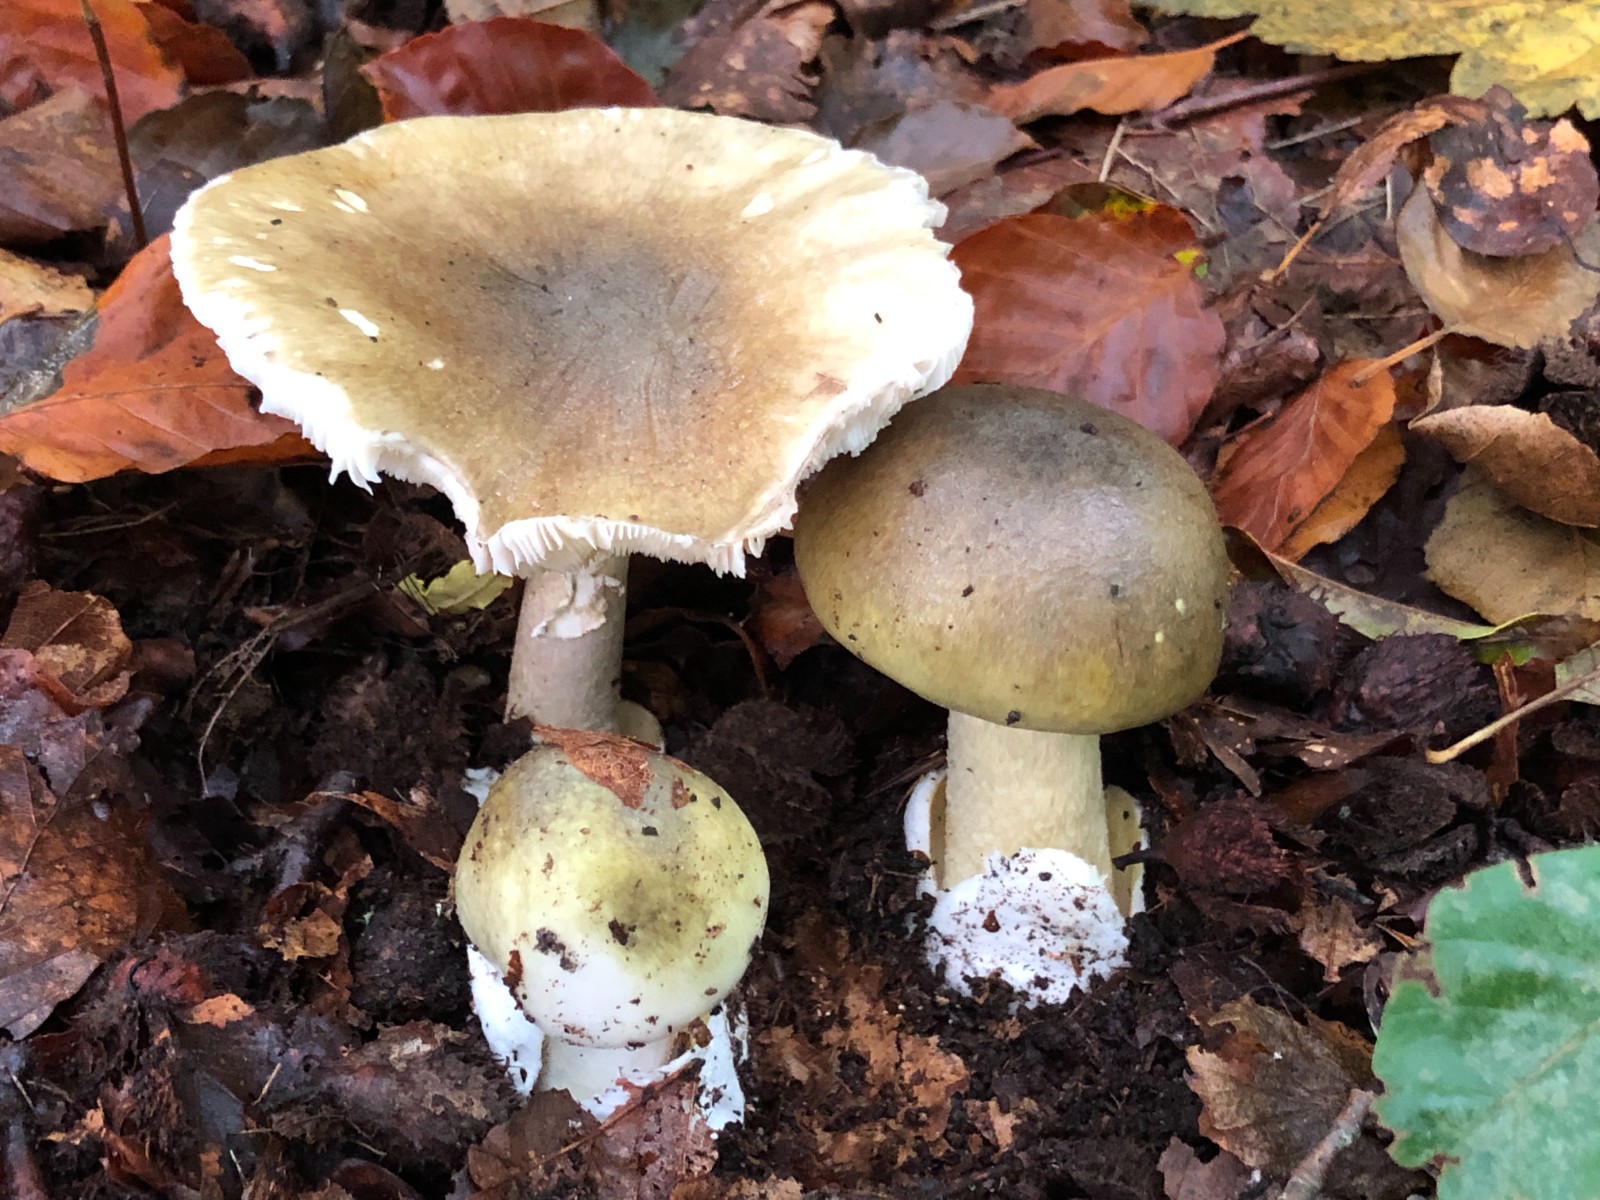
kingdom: Fungi
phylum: Basidiomycota
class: Agaricomycetes
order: Agaricales
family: Amanitaceae
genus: Amanita
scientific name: Amanita phalloides
